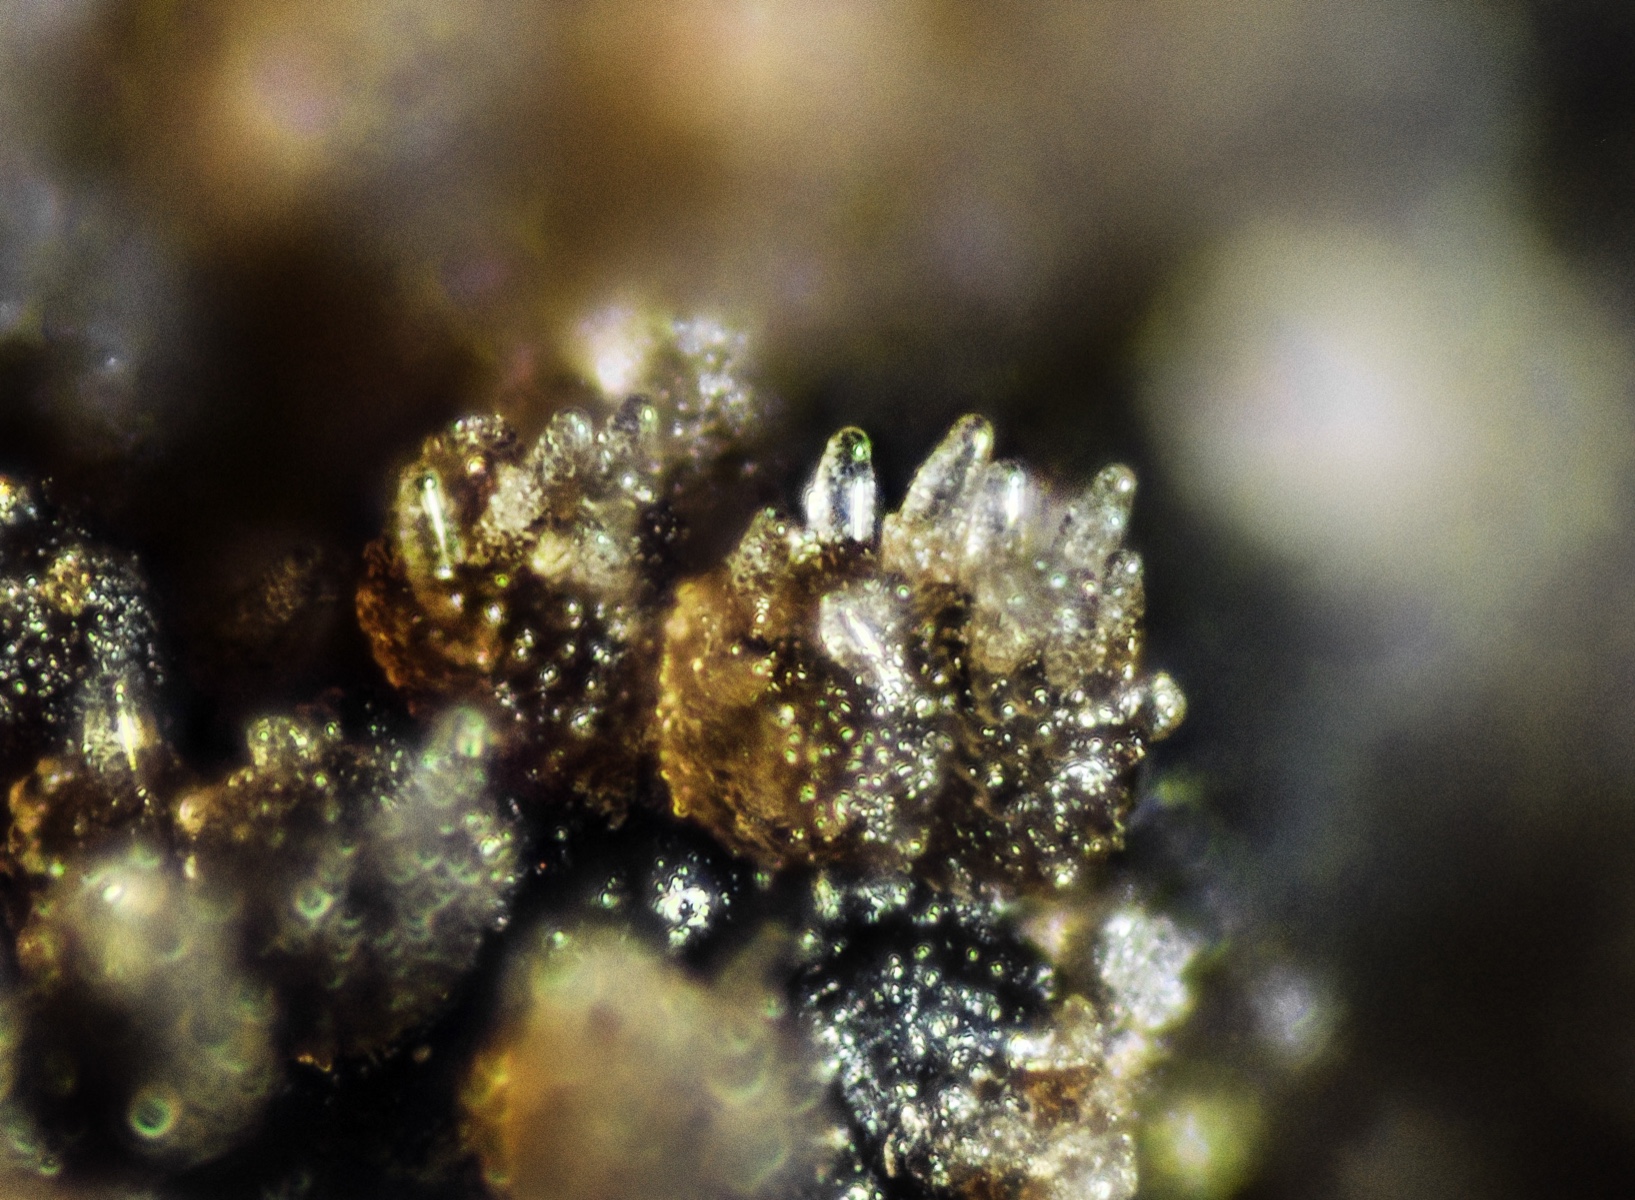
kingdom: Fungi
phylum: Ascomycota
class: Leotiomycetes
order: Thelebolales
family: Thelebolaceae
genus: Thelebolus
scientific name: Thelebolus stercoreus
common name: mangesporet småbæger
